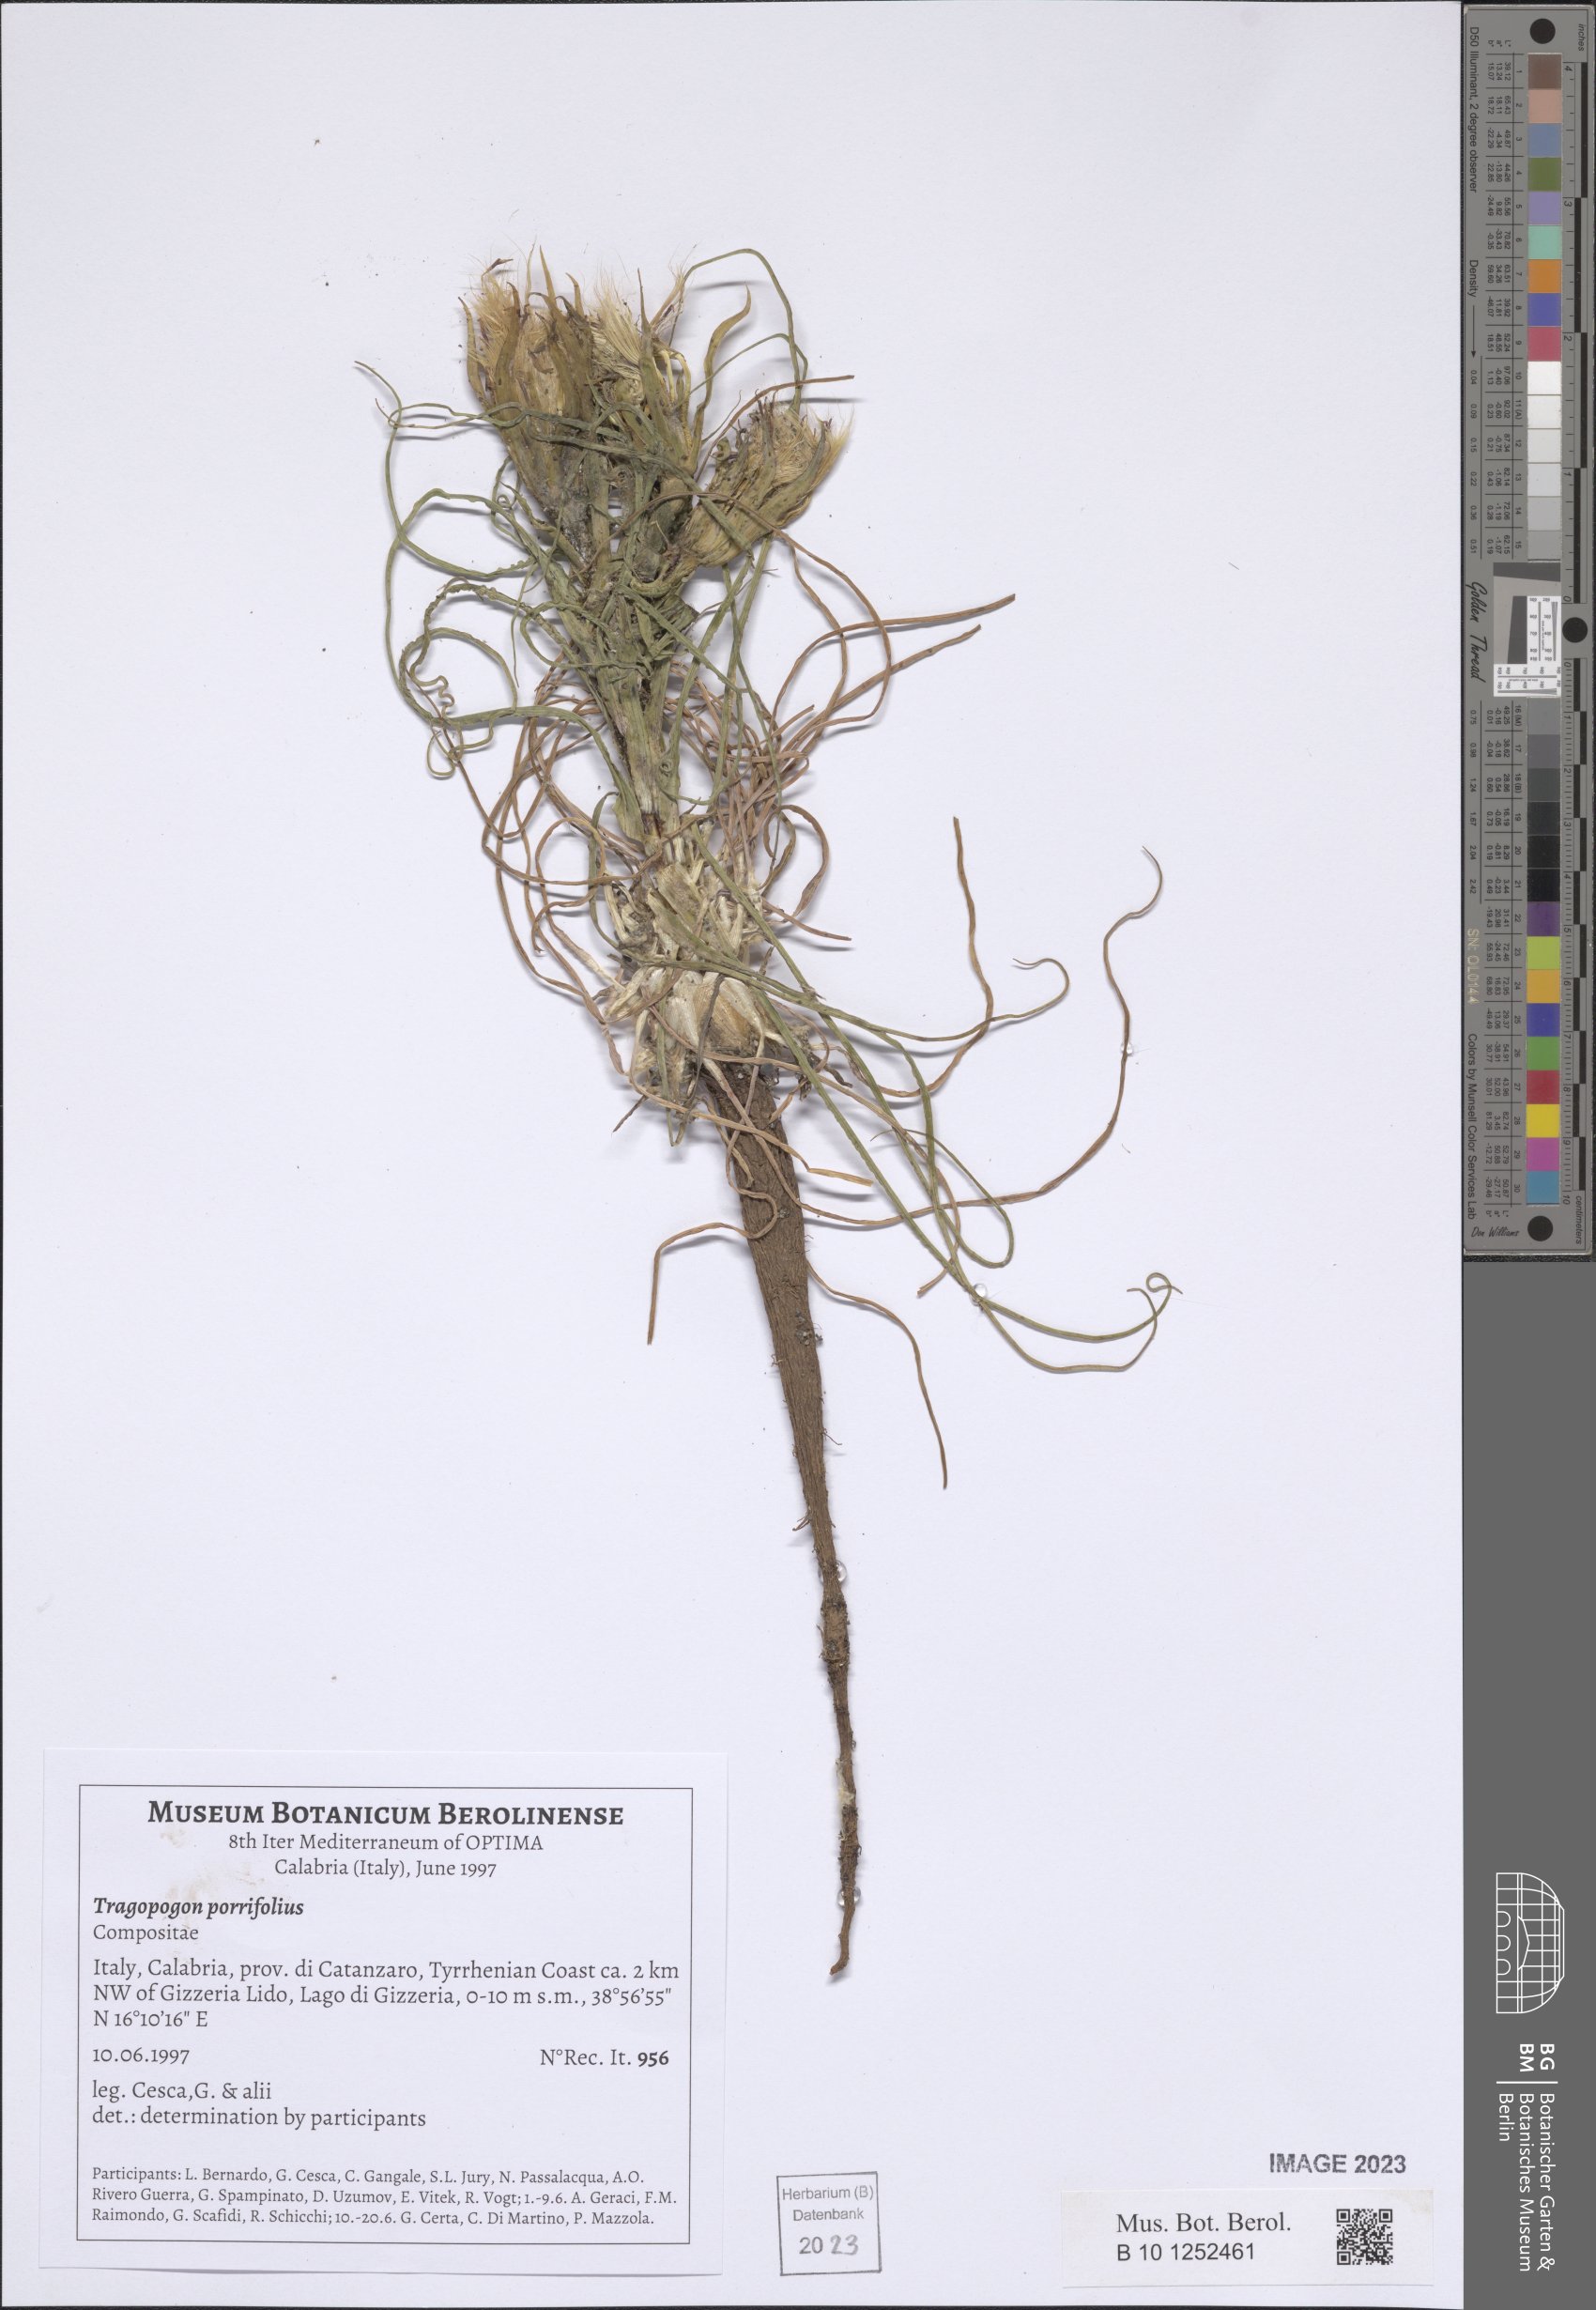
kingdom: Plantae
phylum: Tracheophyta
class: Magnoliopsida
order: Asterales
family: Asteraceae
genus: Tragopogon
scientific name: Tragopogon porrifolius
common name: Salsify
